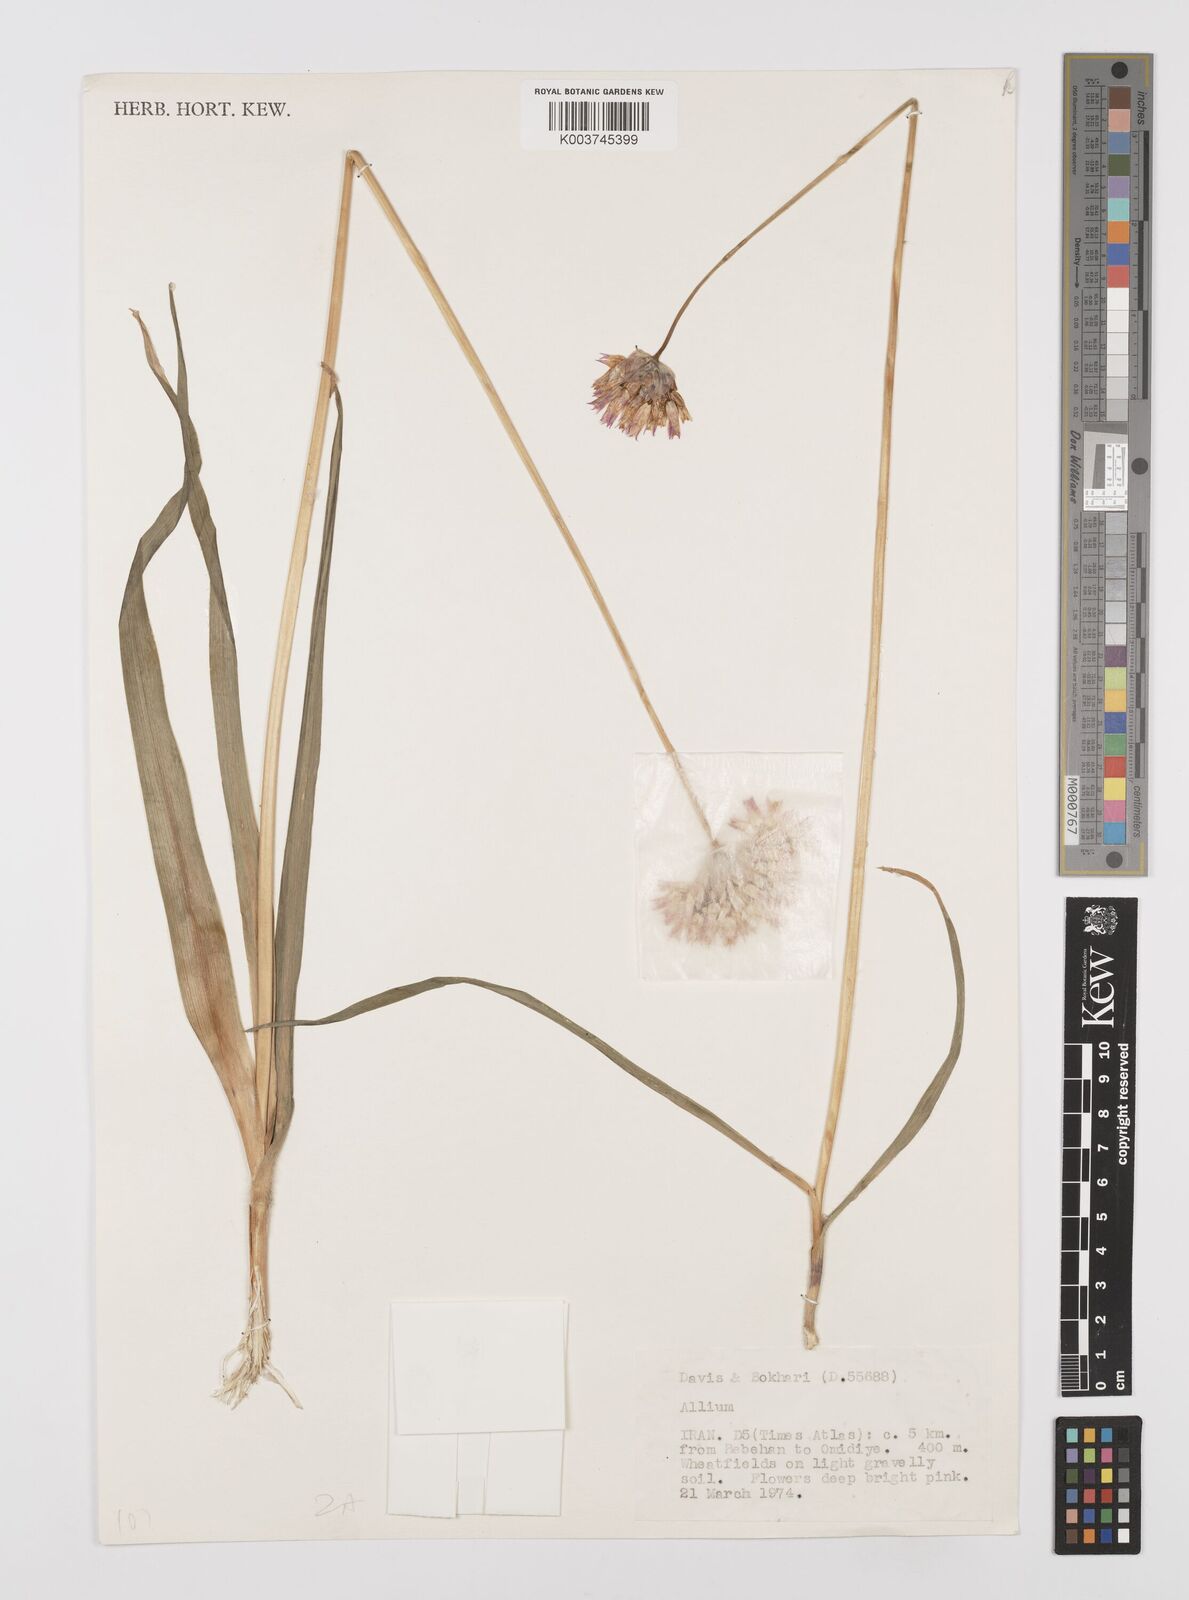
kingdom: Plantae
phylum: Tracheophyta
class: Liliopsida
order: Asparagales
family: Amaryllidaceae
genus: Allium
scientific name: Allium
